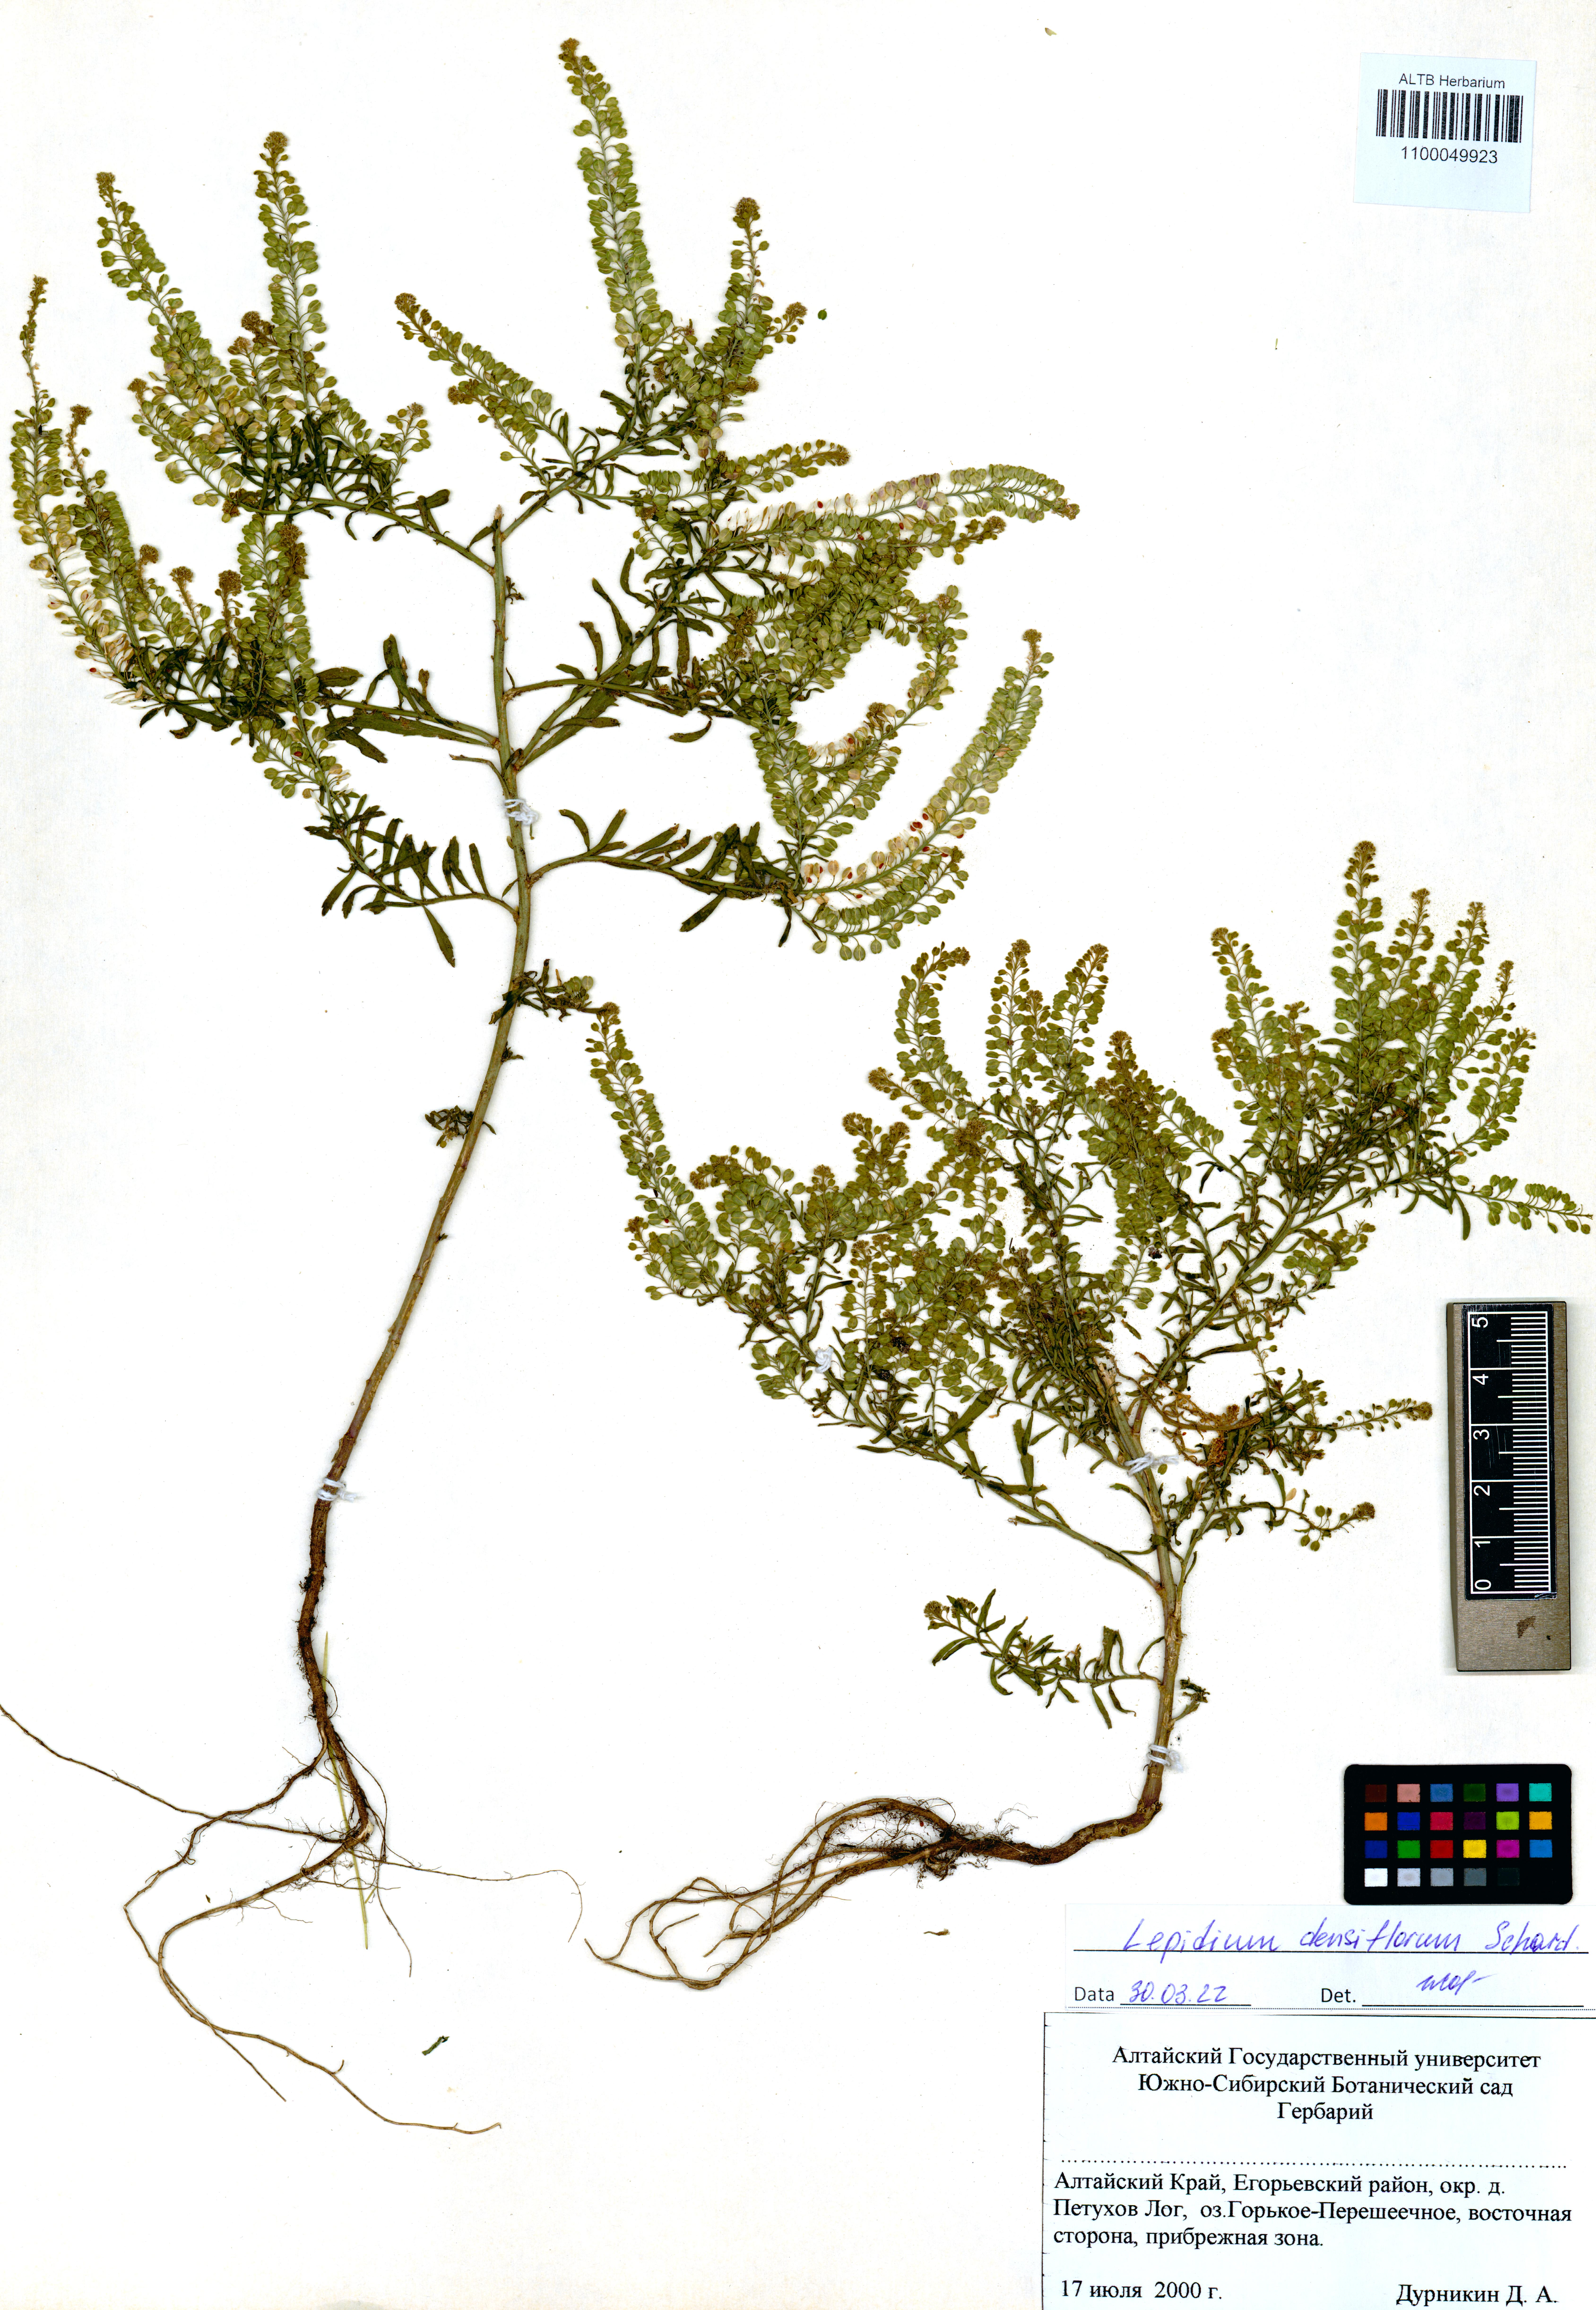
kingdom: Plantae
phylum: Tracheophyta
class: Magnoliopsida
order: Brassicales
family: Brassicaceae
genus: Lepidium
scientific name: Lepidium densiflorum
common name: Miner's pepperwort
